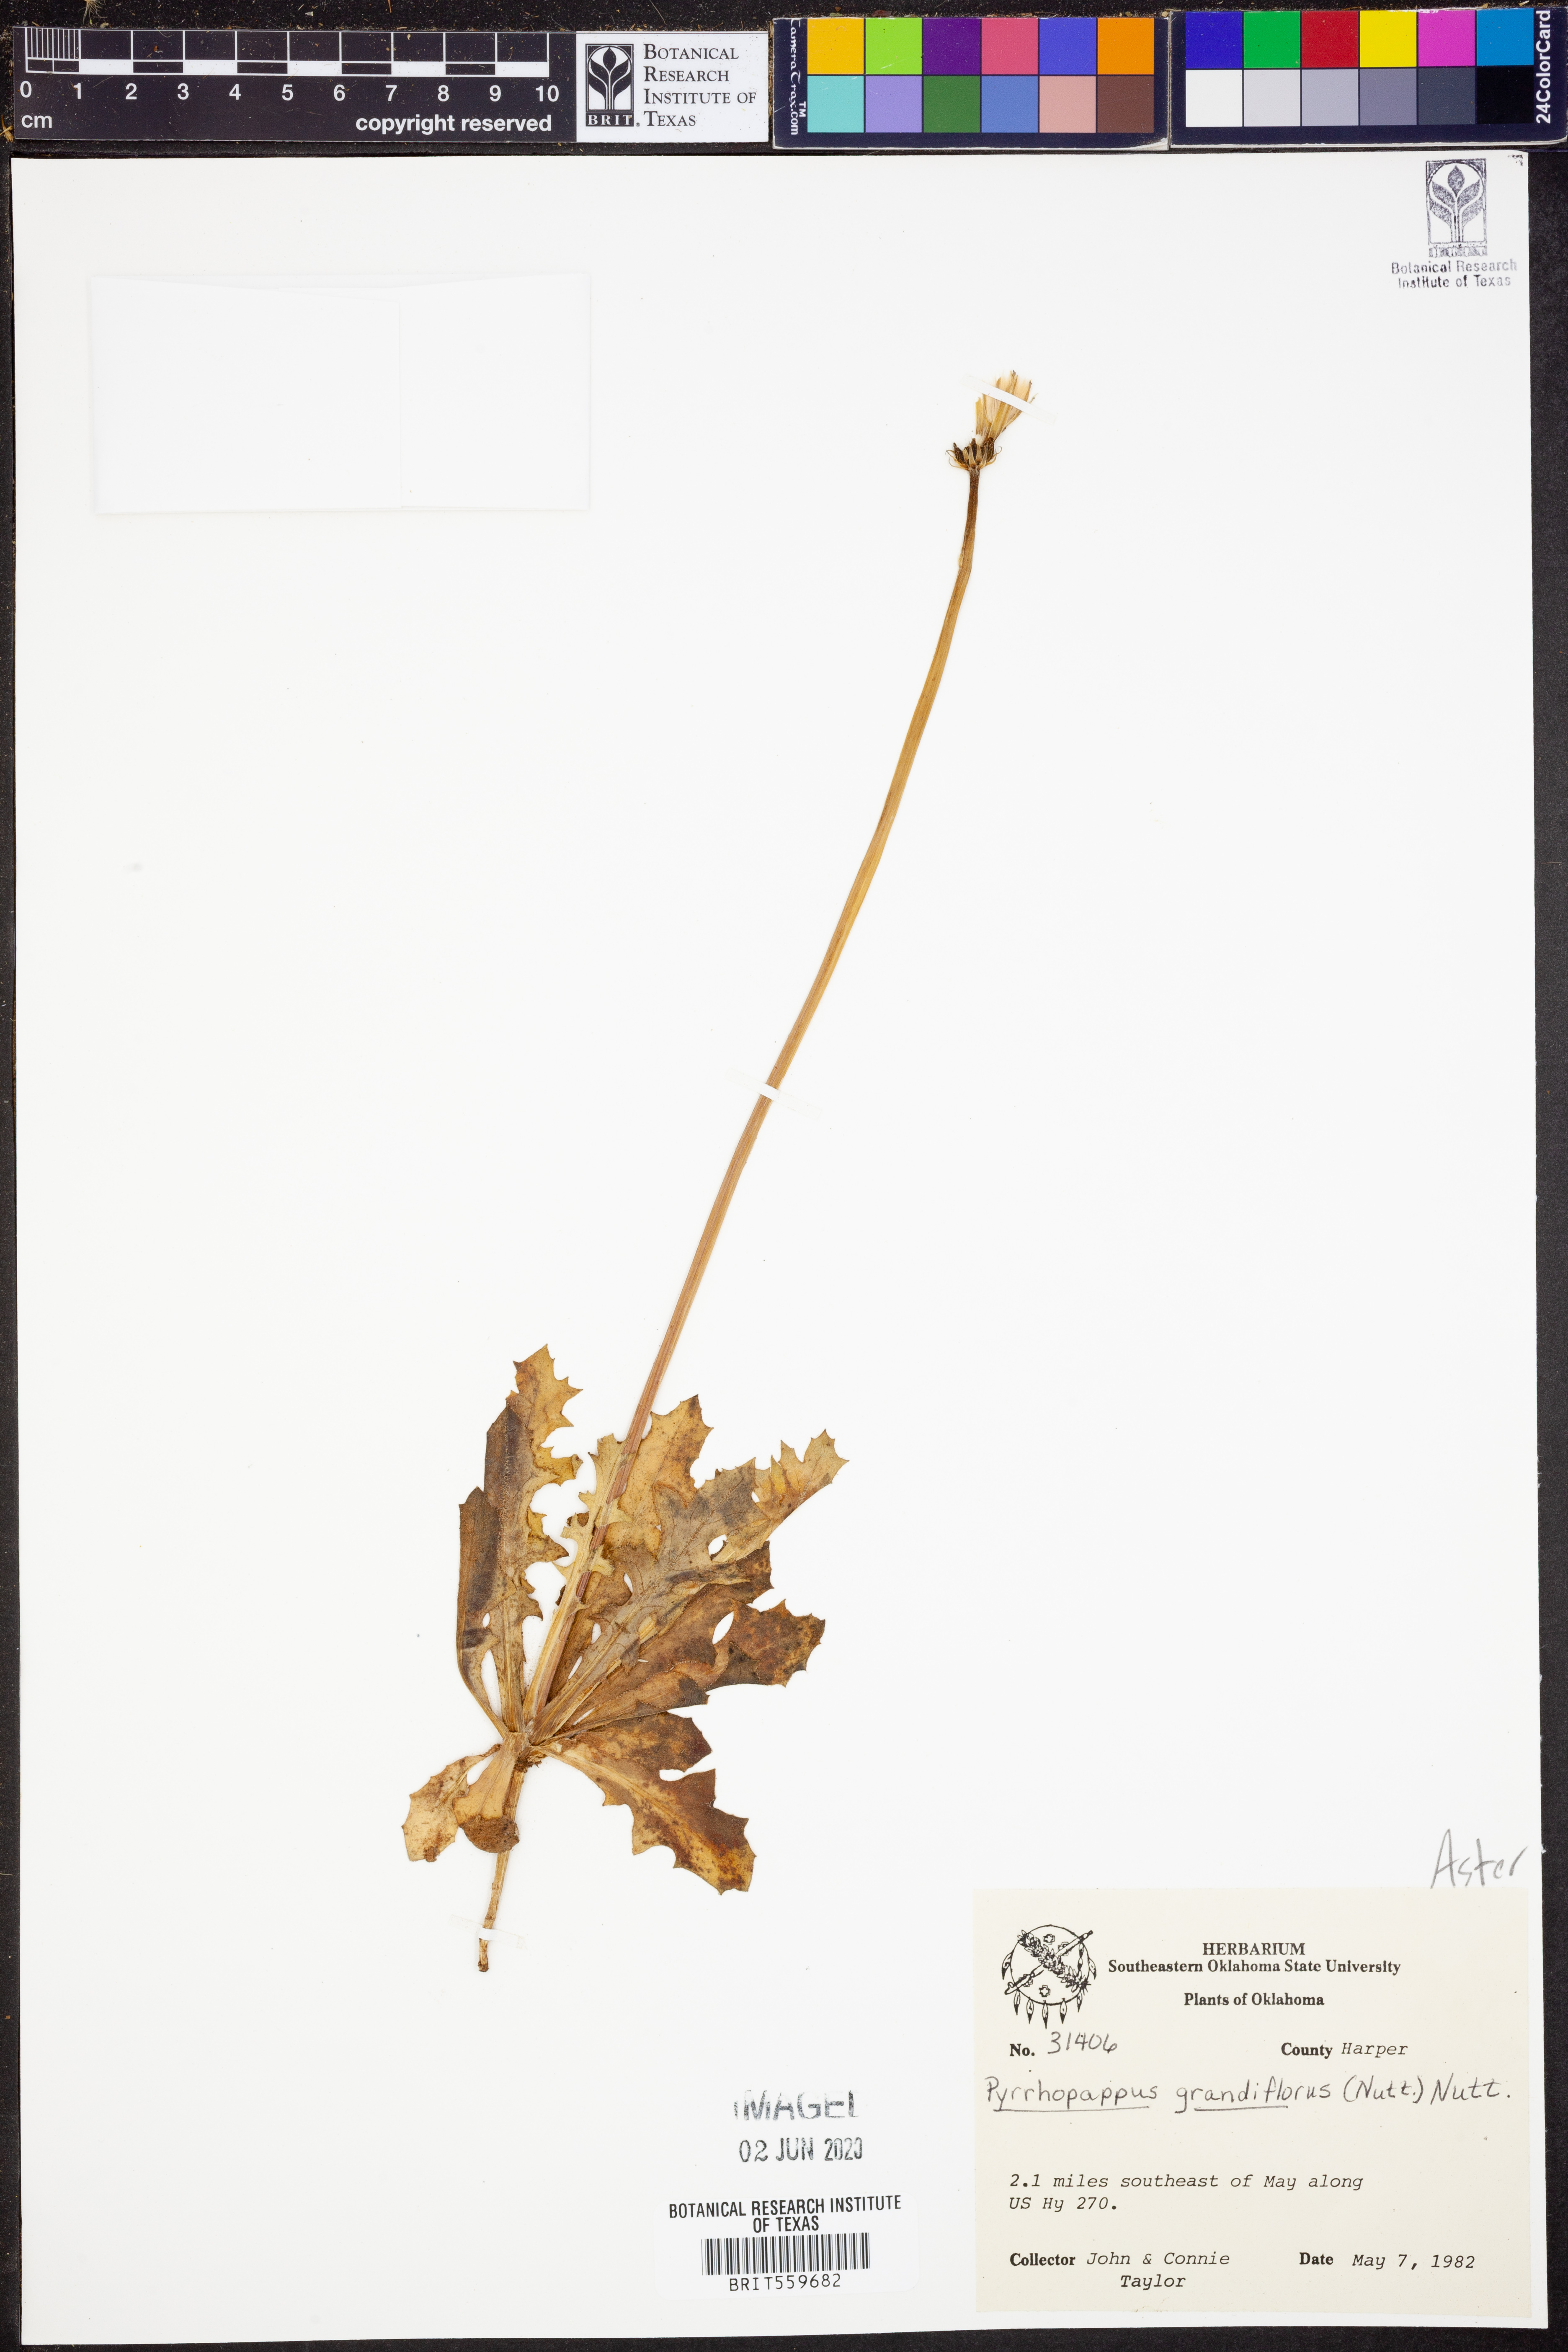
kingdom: Plantae
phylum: Tracheophyta
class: Magnoliopsida
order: Asterales
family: Asteraceae
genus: Pyrrhopappus
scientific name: Pyrrhopappus grandiflorus
